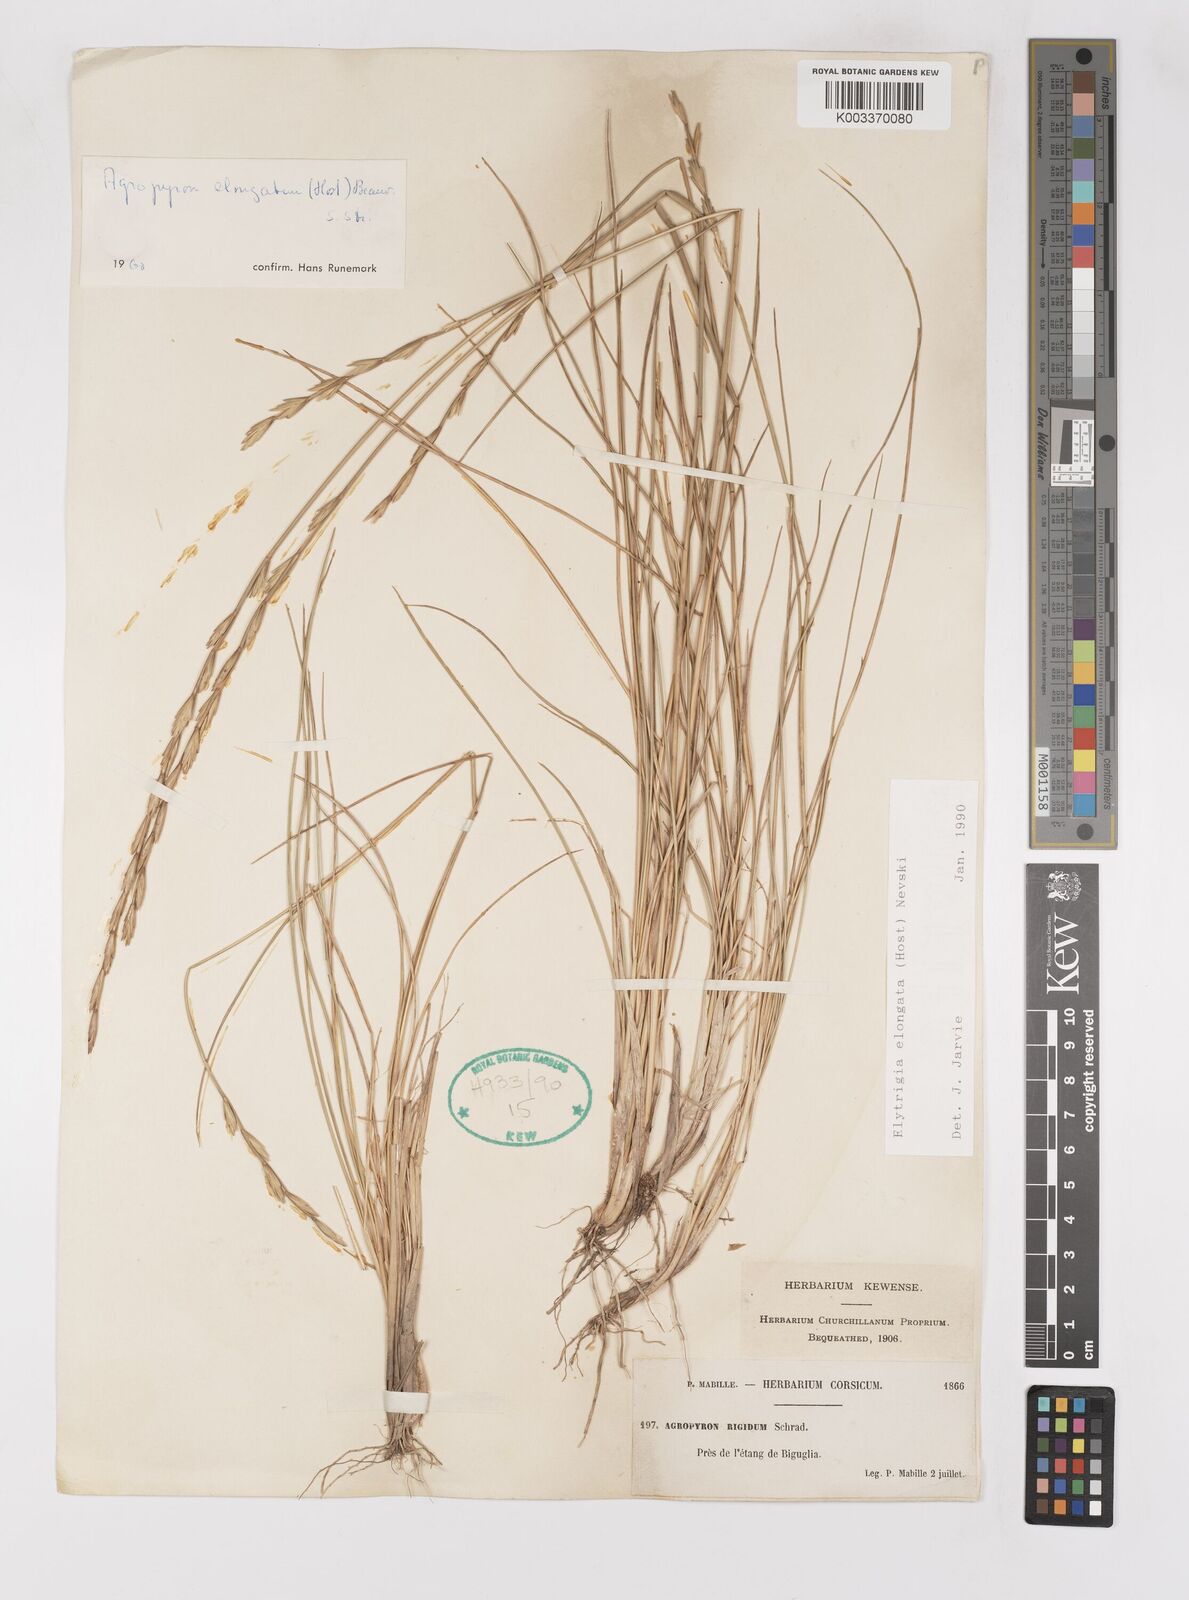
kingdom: Plantae
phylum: Tracheophyta
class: Liliopsida
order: Poales
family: Poaceae
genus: Thinopyrum
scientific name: Thinopyrum elongatum
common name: Tall wheatgrass
